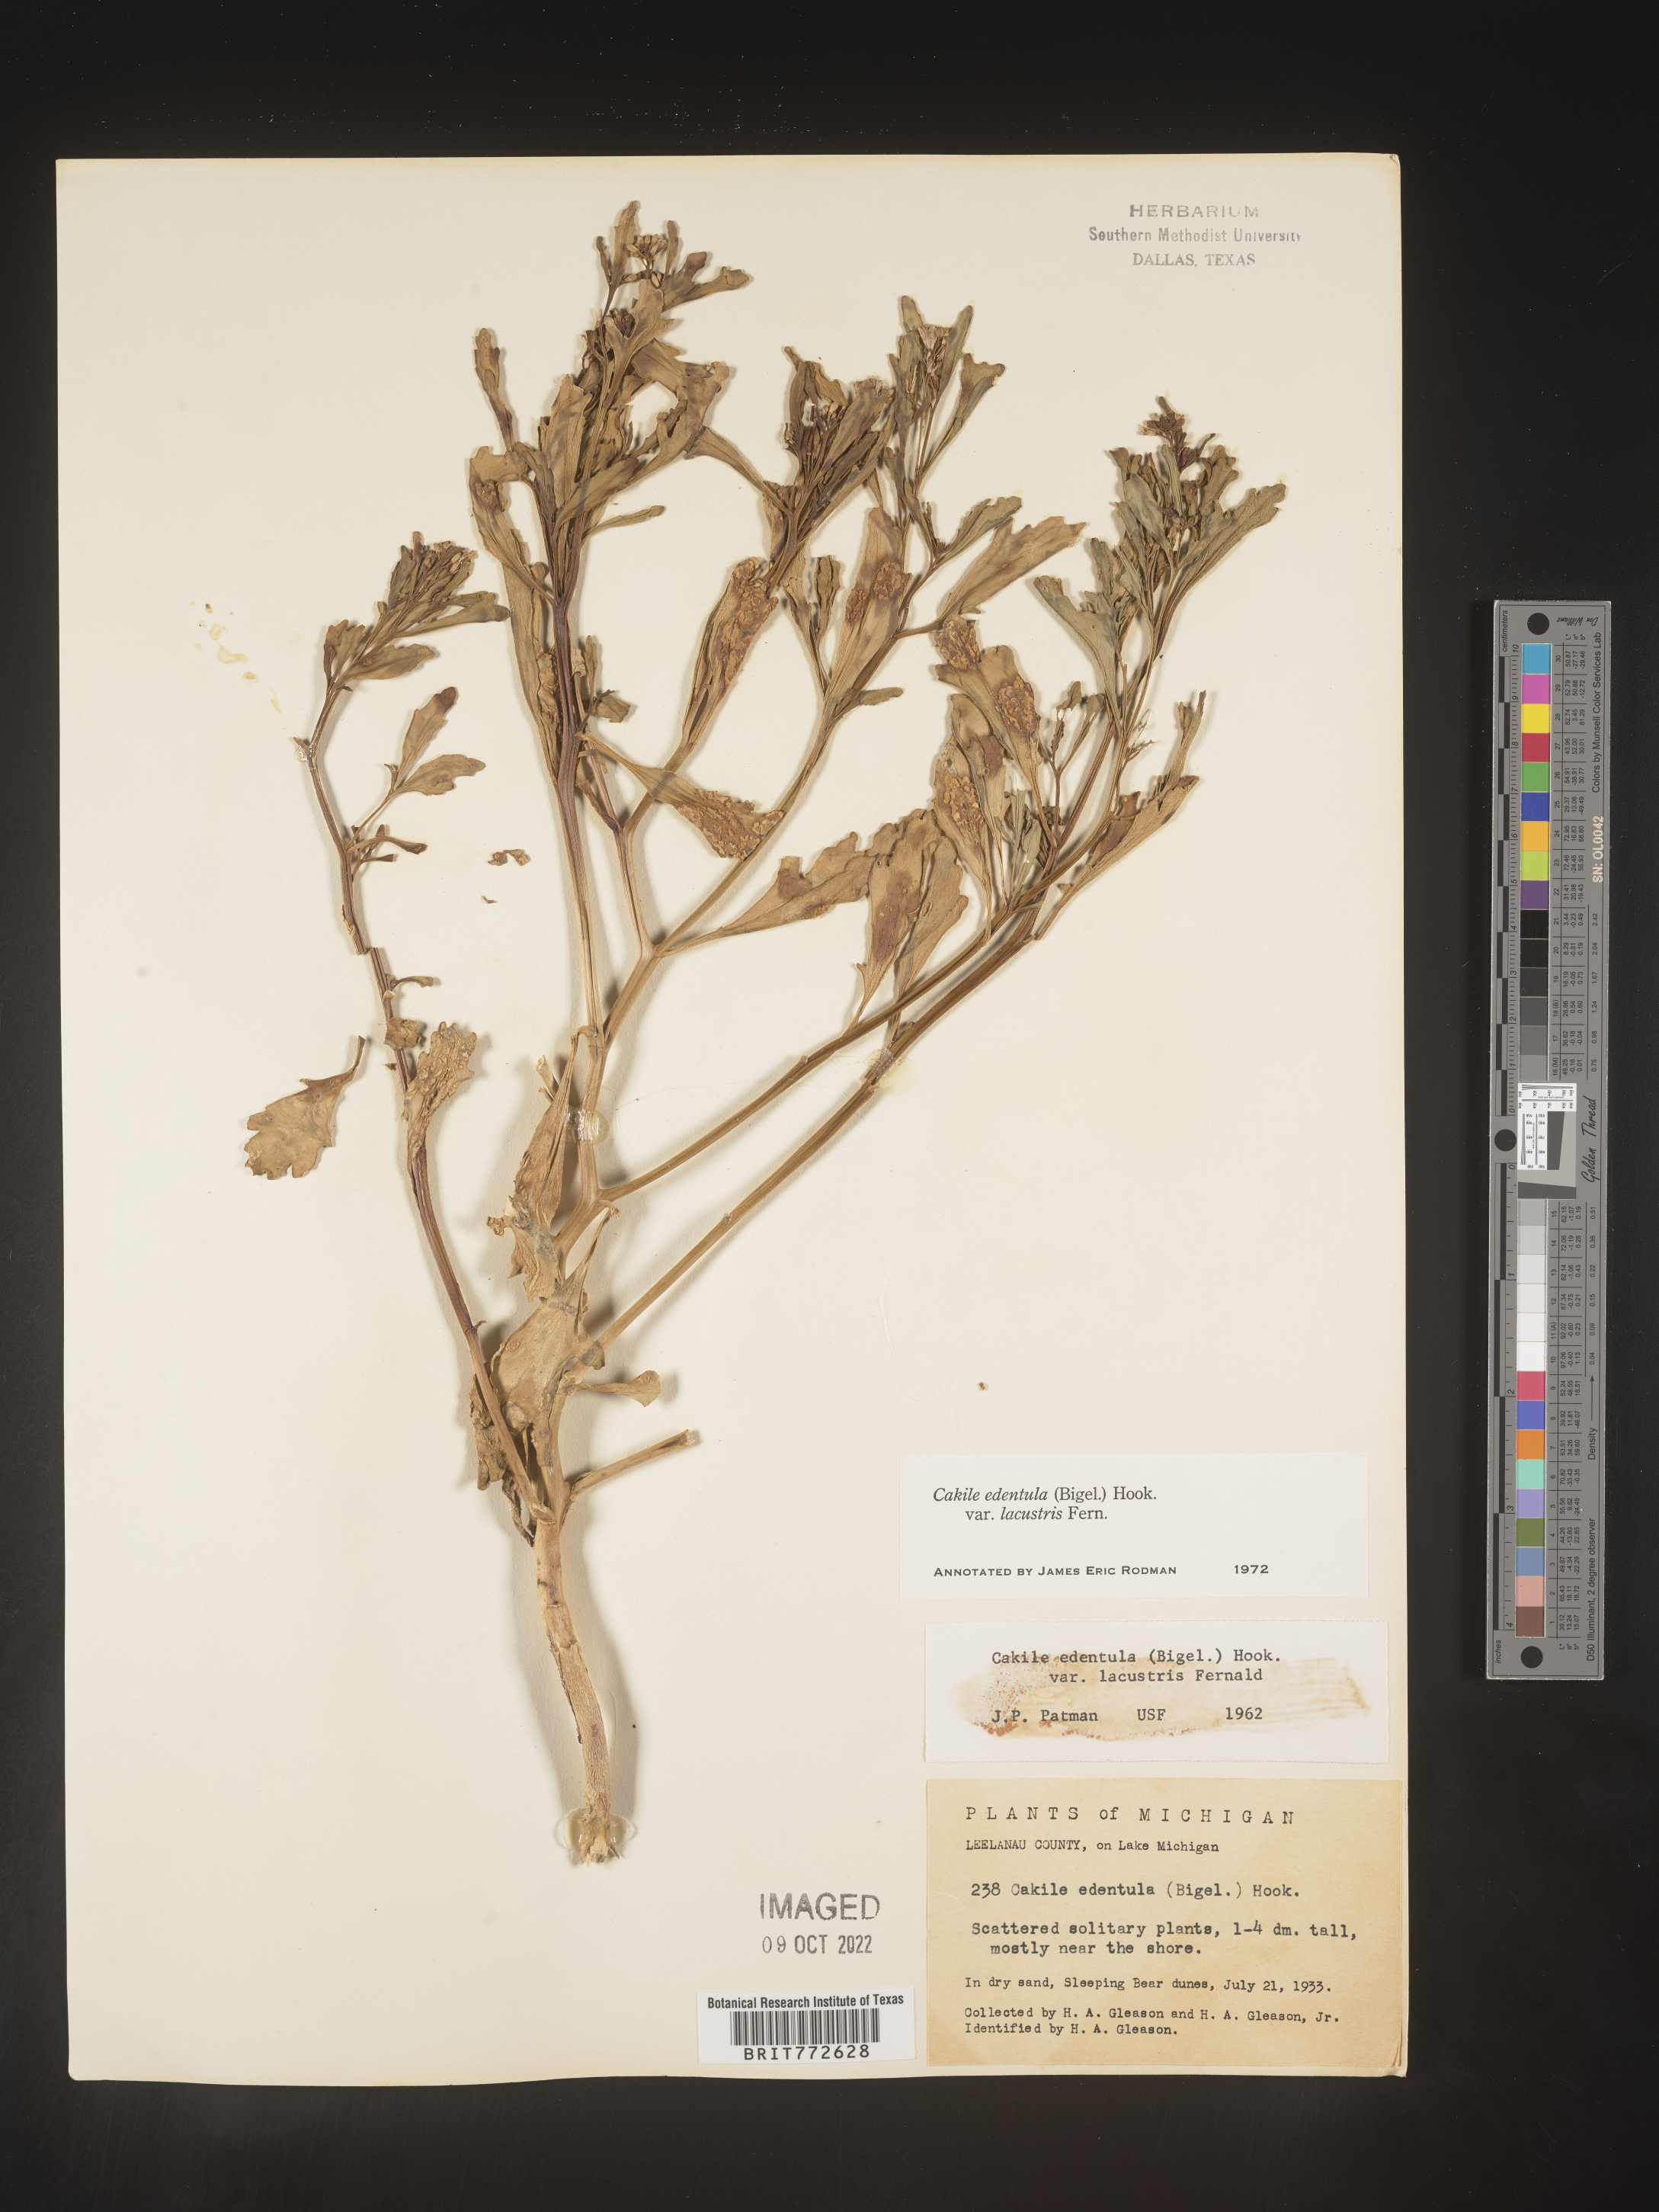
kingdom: Plantae
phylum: Tracheophyta
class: Magnoliopsida
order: Brassicales
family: Brassicaceae
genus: Cakile
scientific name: Cakile edentula
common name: American sea rocket
